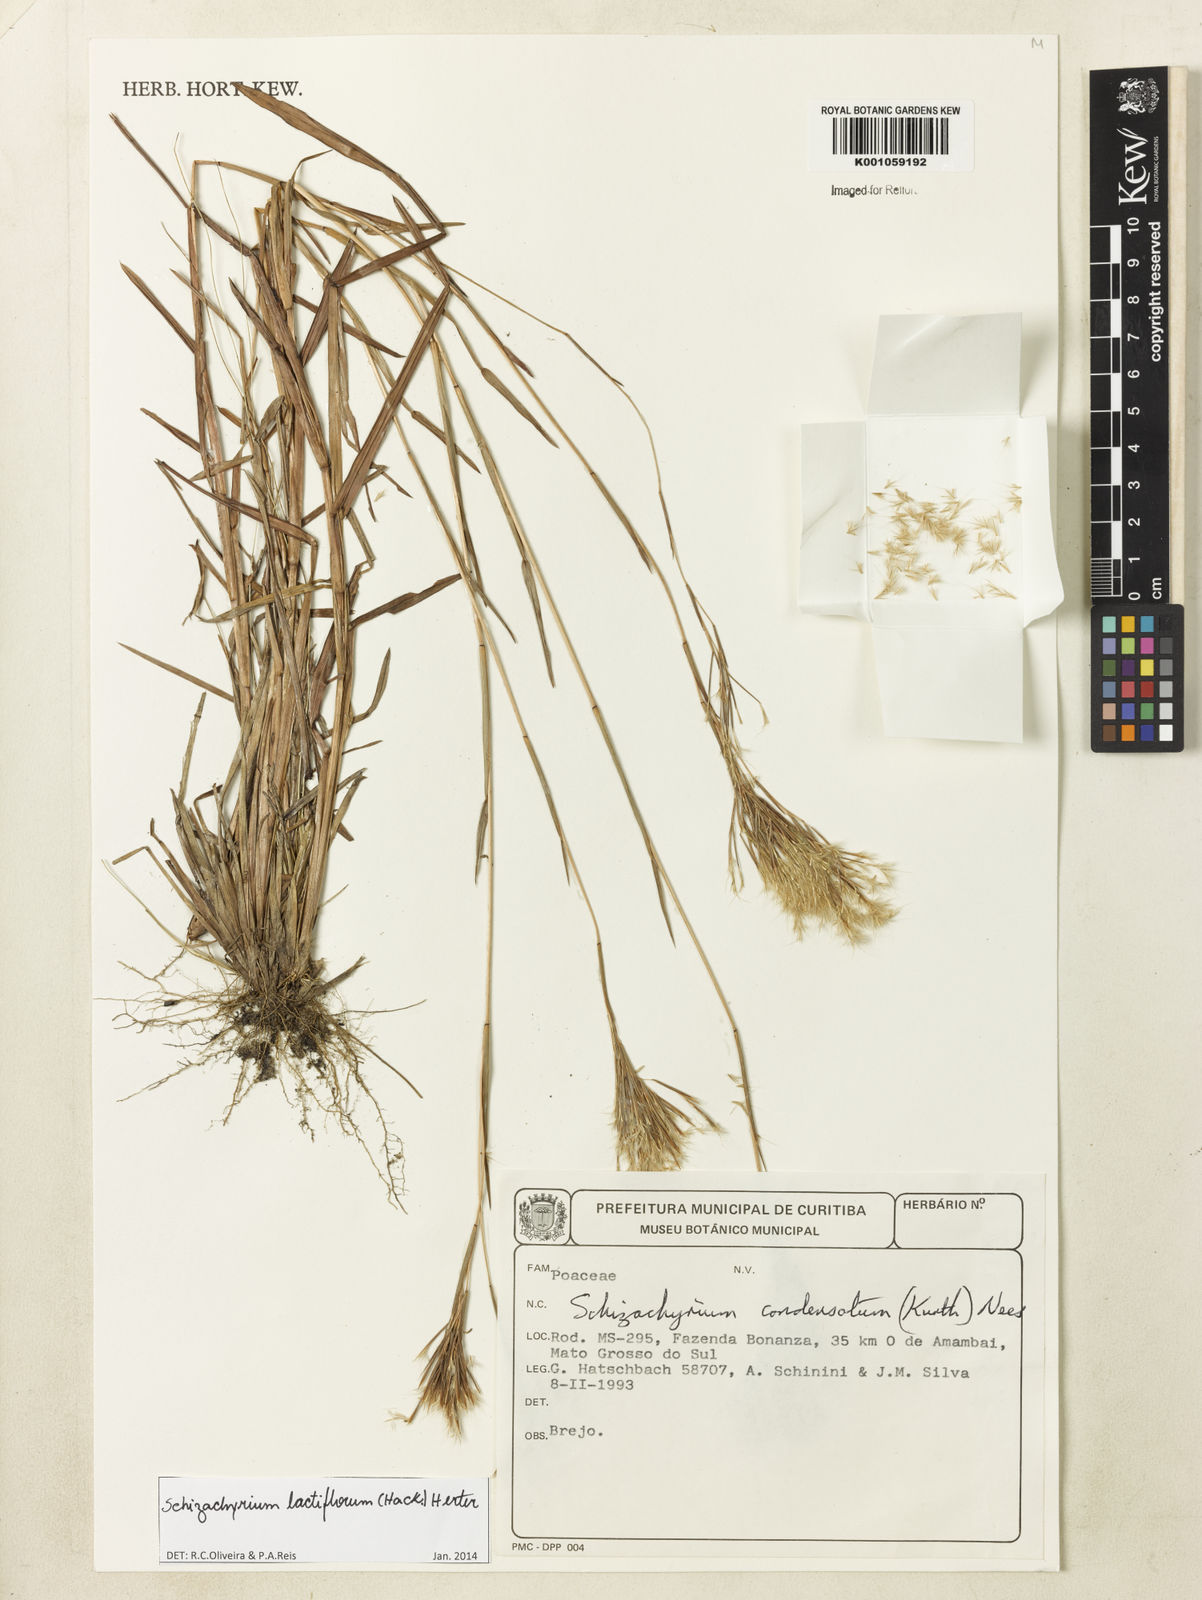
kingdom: Plantae
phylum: Tracheophyta
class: Liliopsida
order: Poales
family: Poaceae
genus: Schizachyrium
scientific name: Schizachyrium condensatum
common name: Bush beardgrass
